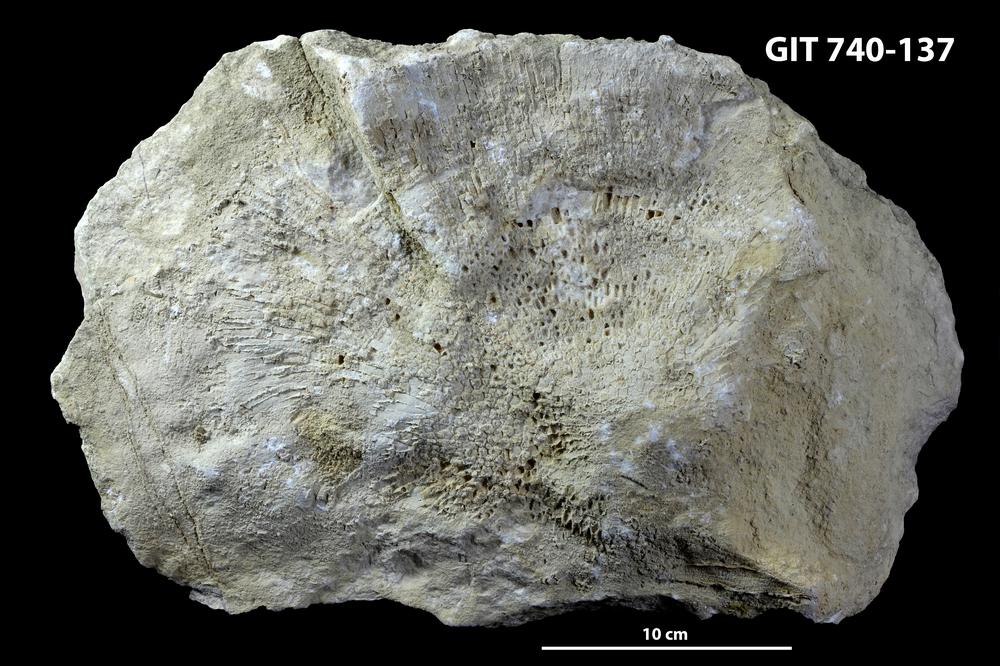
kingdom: Animalia
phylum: Cnidaria
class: Anthozoa
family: Favositidae
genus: Mesofavosites
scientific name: Mesofavosites
